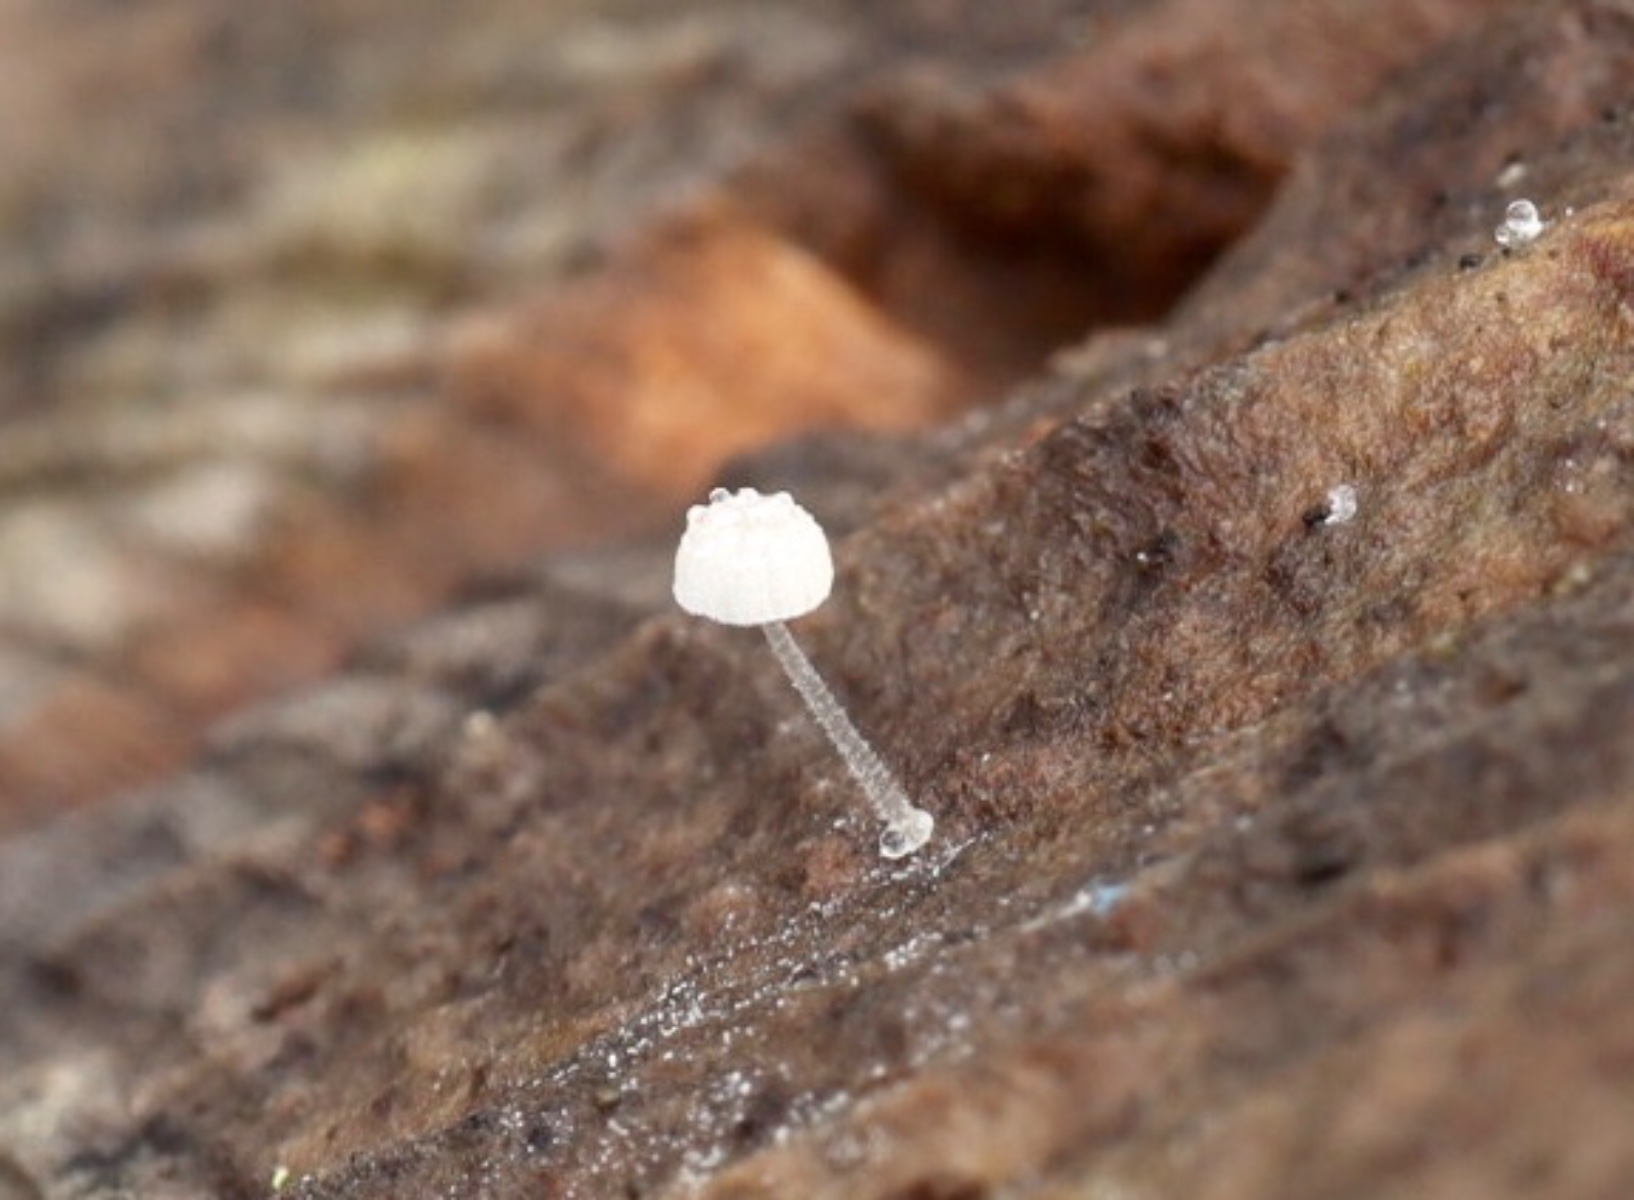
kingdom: Fungi
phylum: Basidiomycota
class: Agaricomycetes
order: Agaricales
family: Mycenaceae
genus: Mycena
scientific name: Mycena
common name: huesvamp
